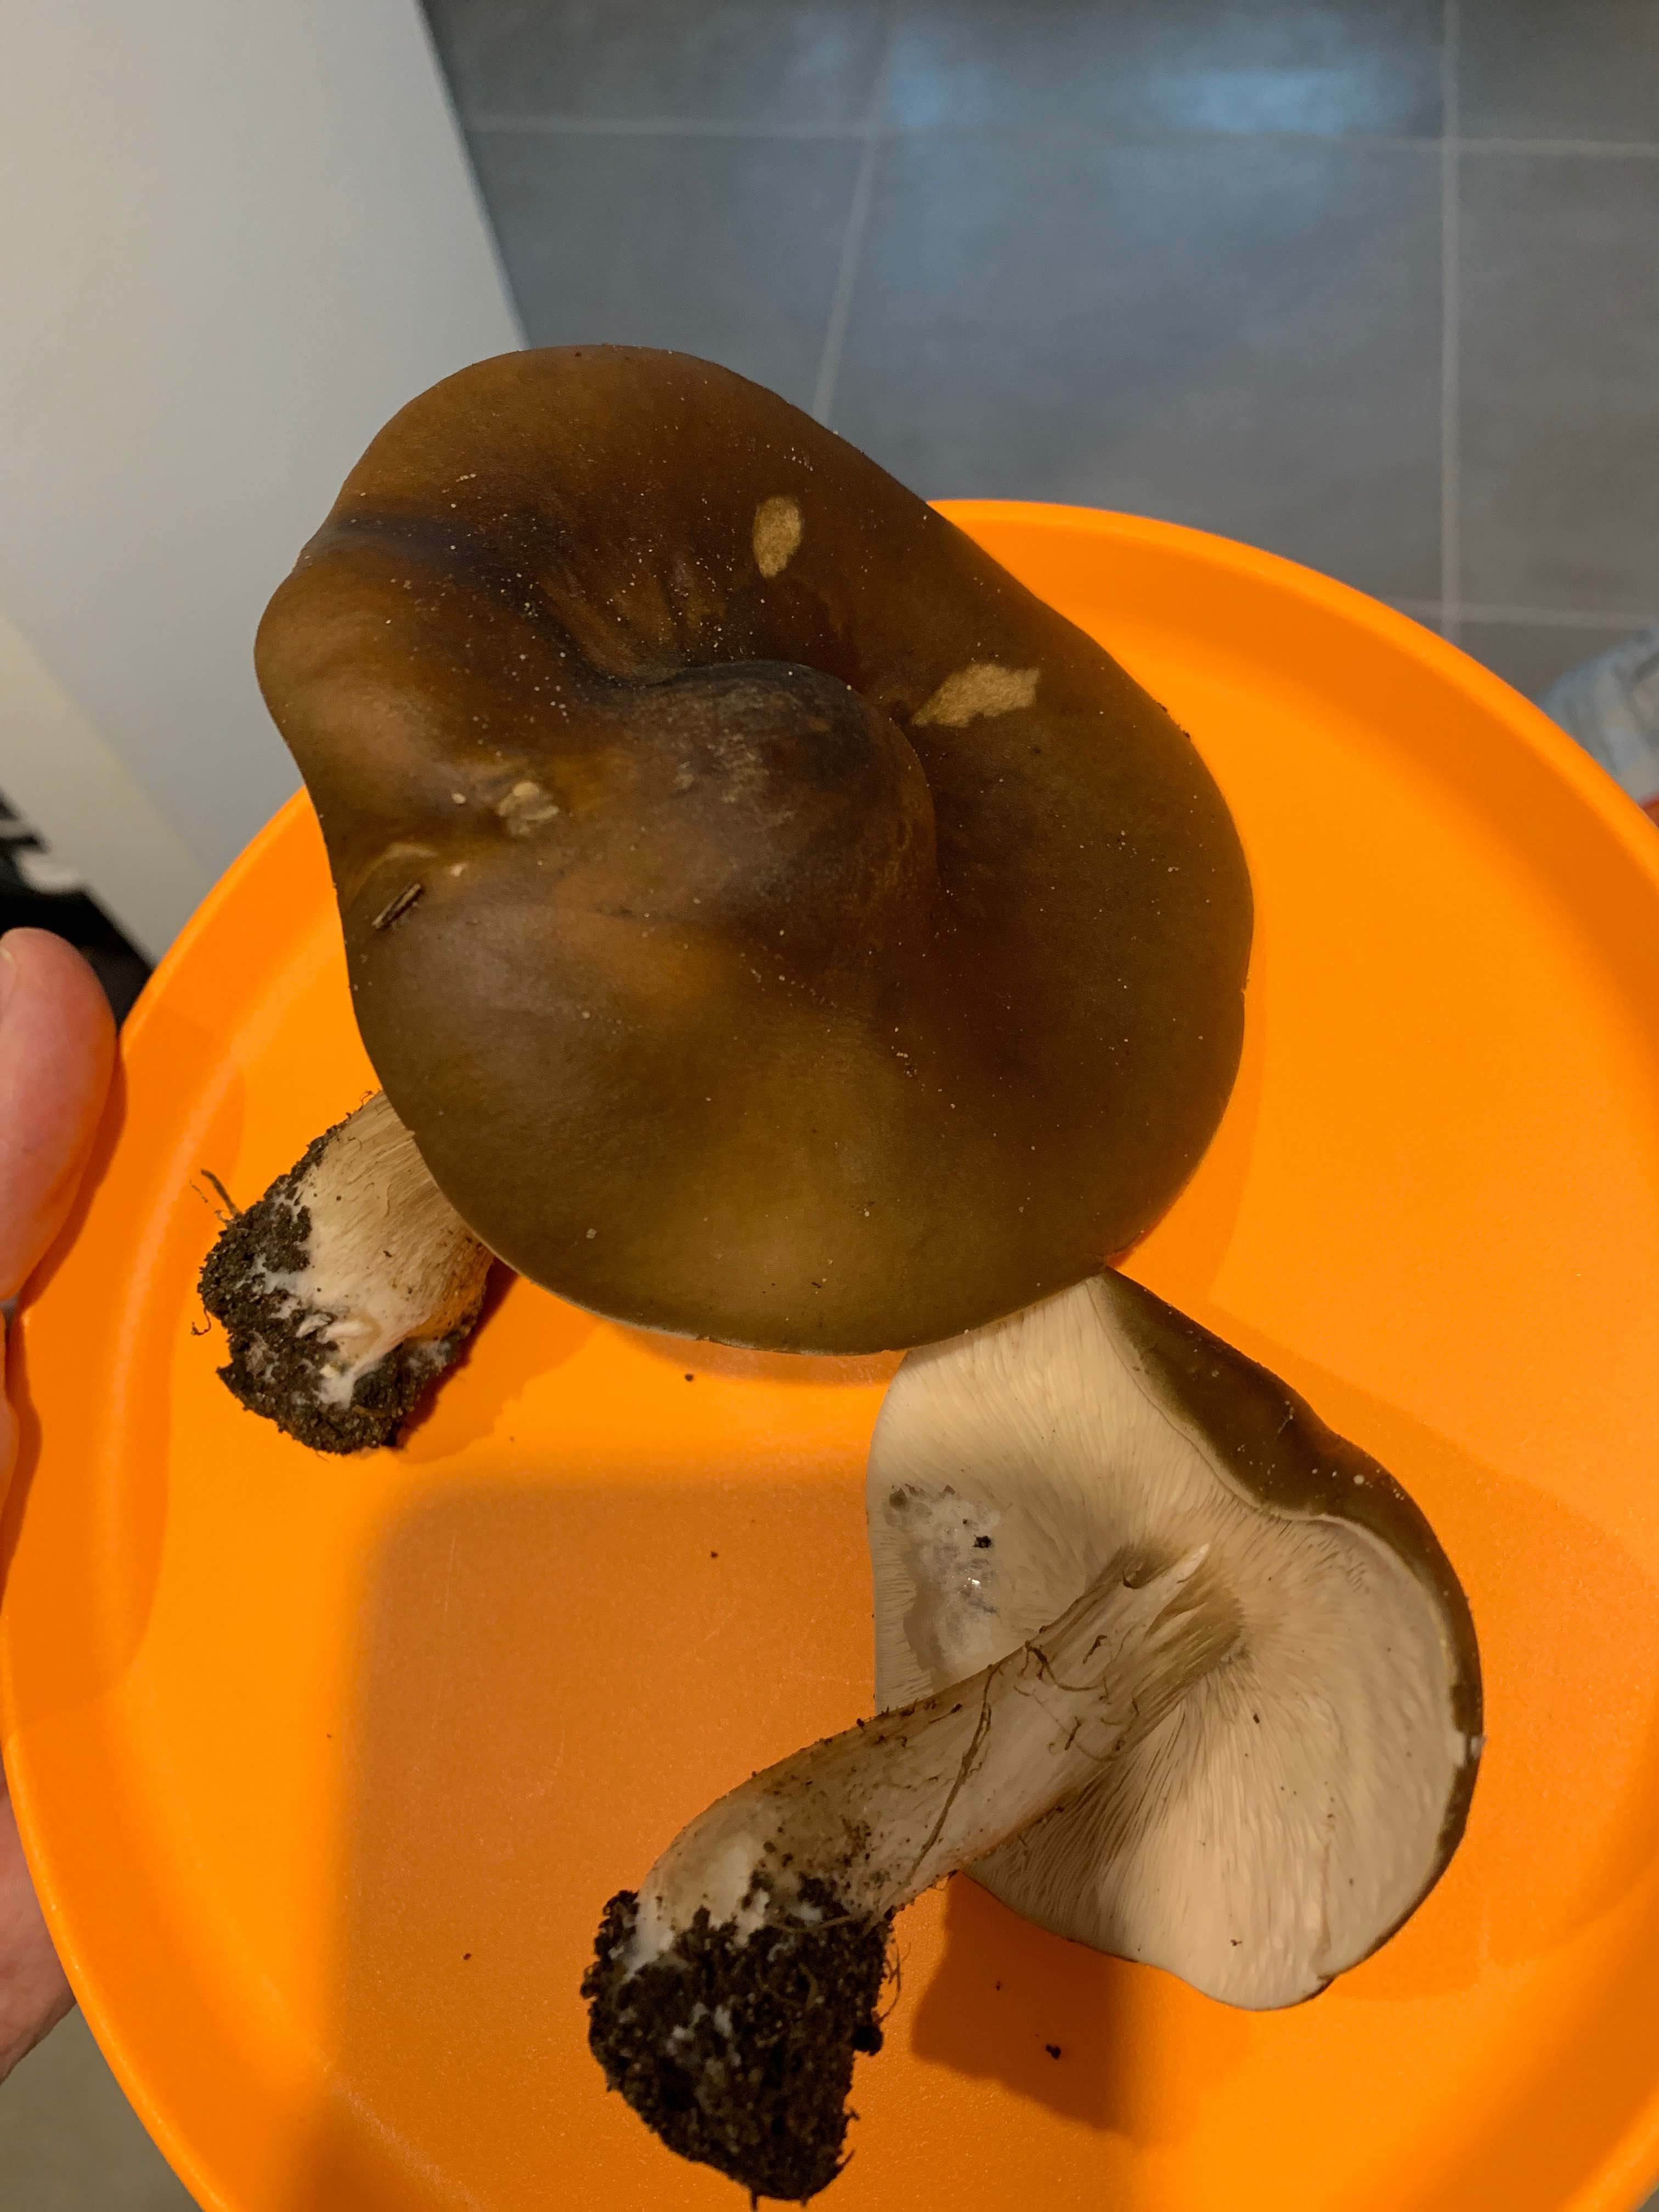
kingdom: Fungi
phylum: Basidiomycota
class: Agaricomycetes
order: Agaricales
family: Tricholomataceae
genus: Melanoleuca
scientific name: Melanoleuca
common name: munkehat
